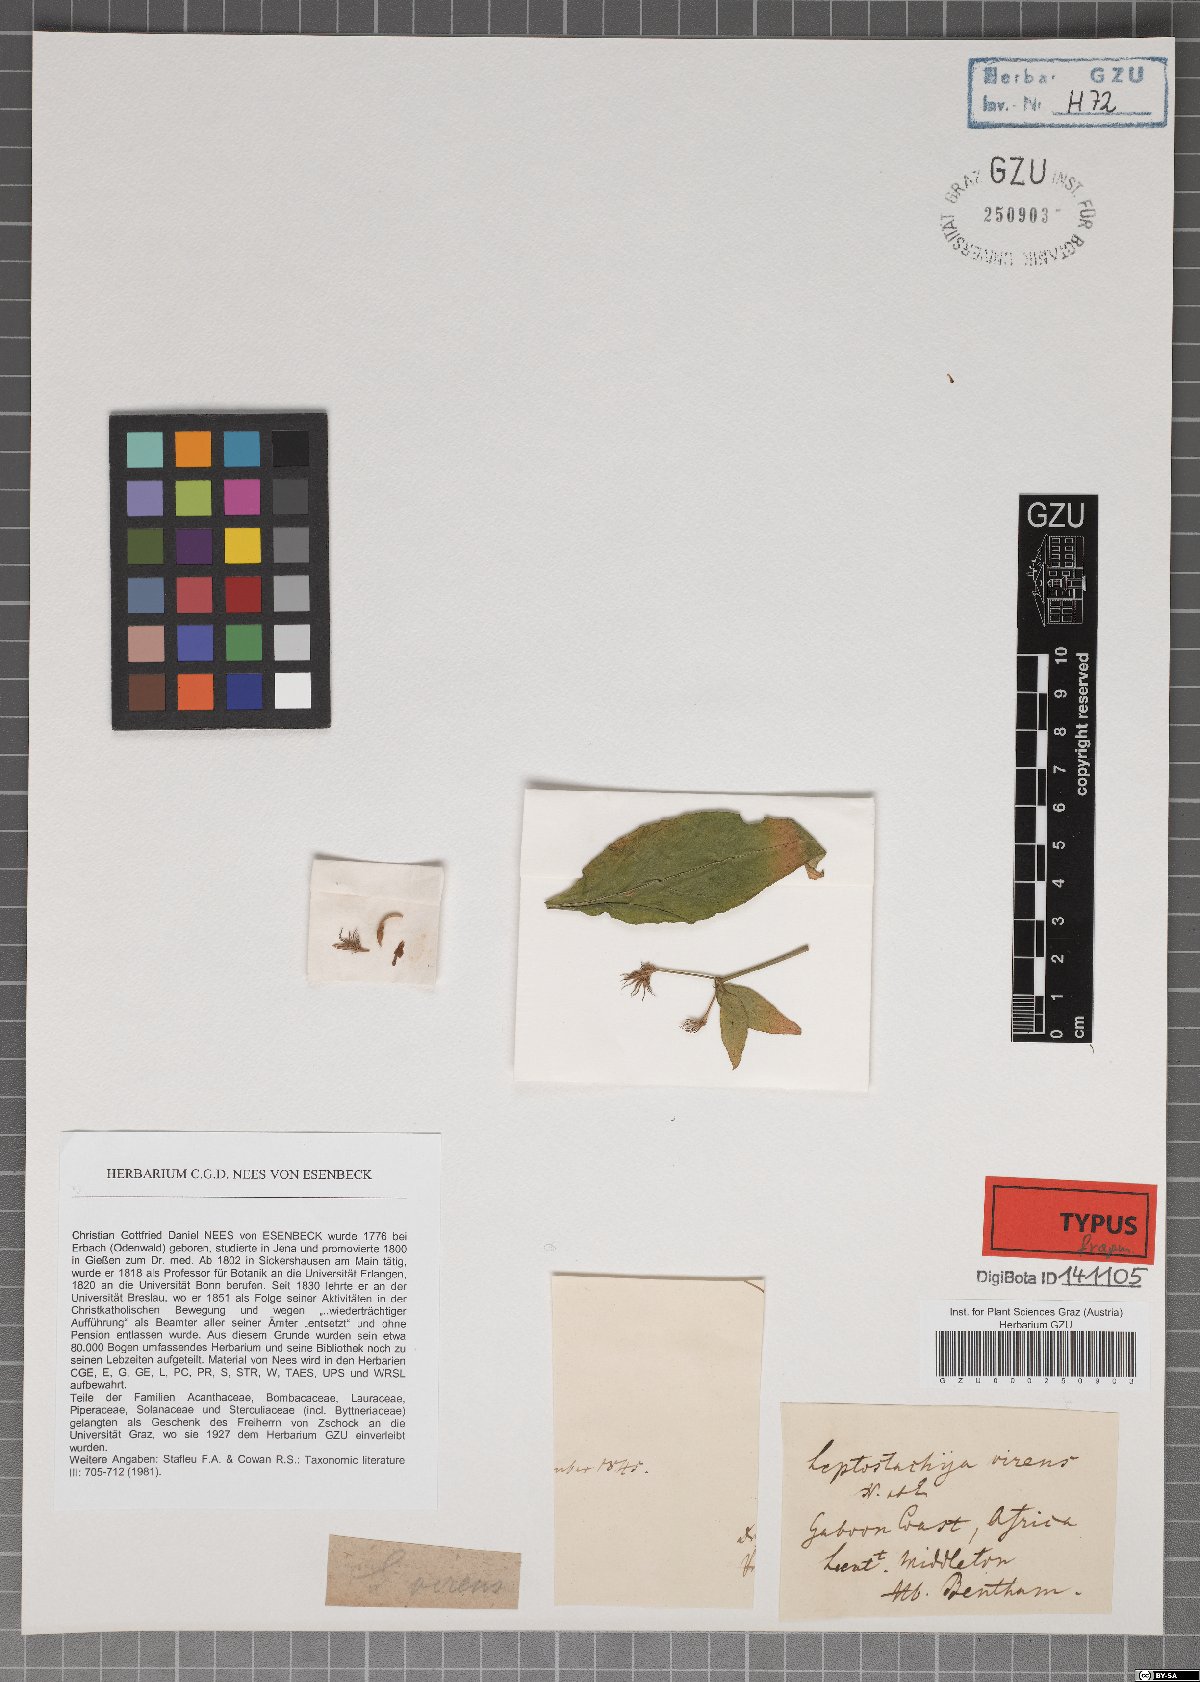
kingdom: Plantae
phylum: Tracheophyta
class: Magnoliopsida
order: Lamiales
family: Acanthaceae
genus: Rhinacanthus
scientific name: Rhinacanthus virens
